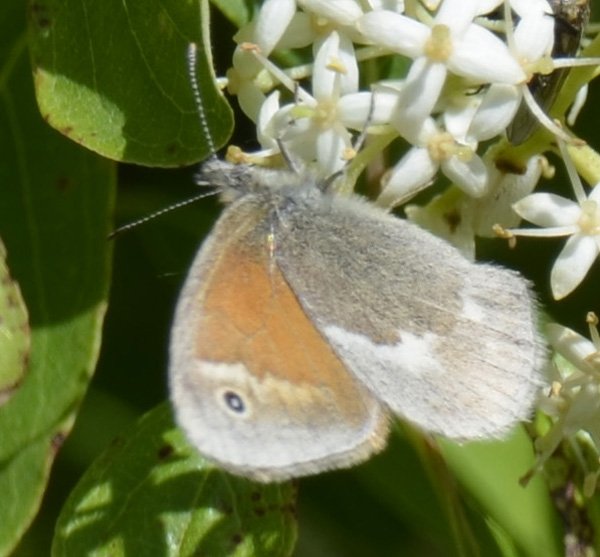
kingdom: Animalia
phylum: Arthropoda
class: Insecta
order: Lepidoptera
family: Nymphalidae
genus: Coenonympha
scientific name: Coenonympha tullia
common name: Large Heath
